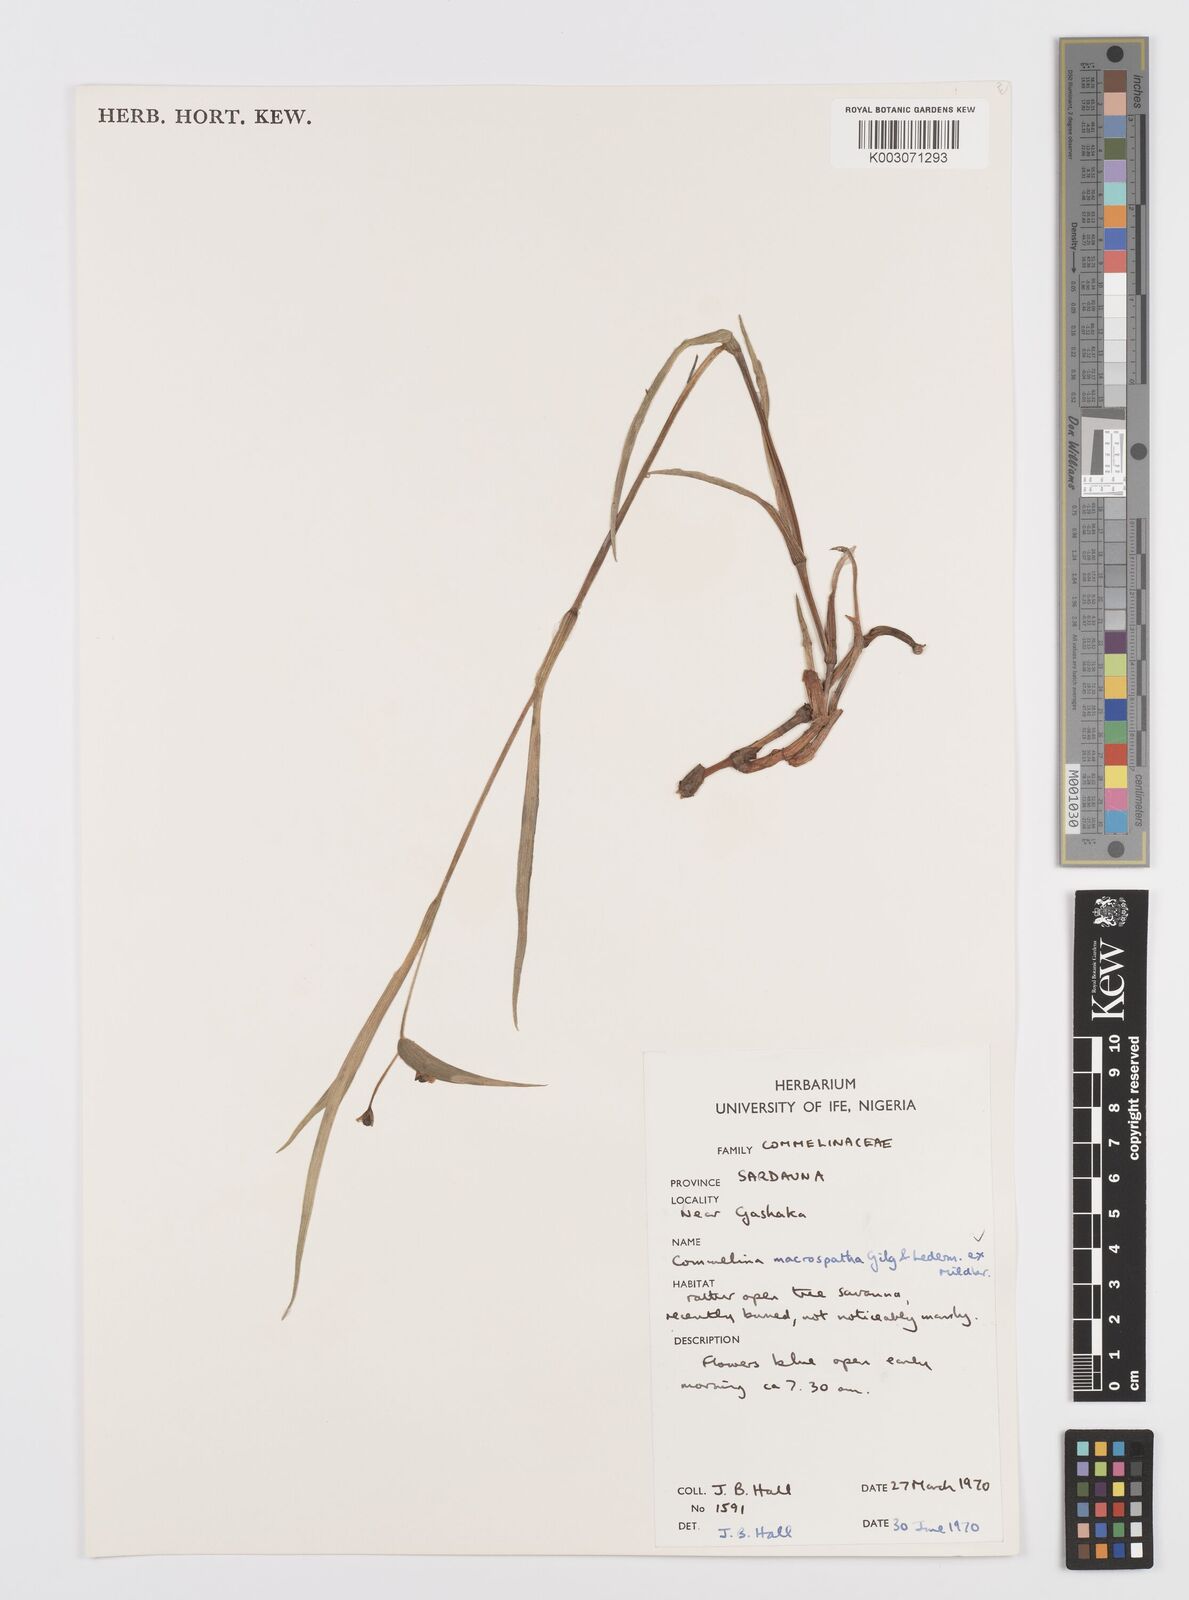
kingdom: Plantae
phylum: Tracheophyta
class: Liliopsida
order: Commelinales
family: Commelinaceae
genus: Commelina
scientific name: Commelina macrospatha
